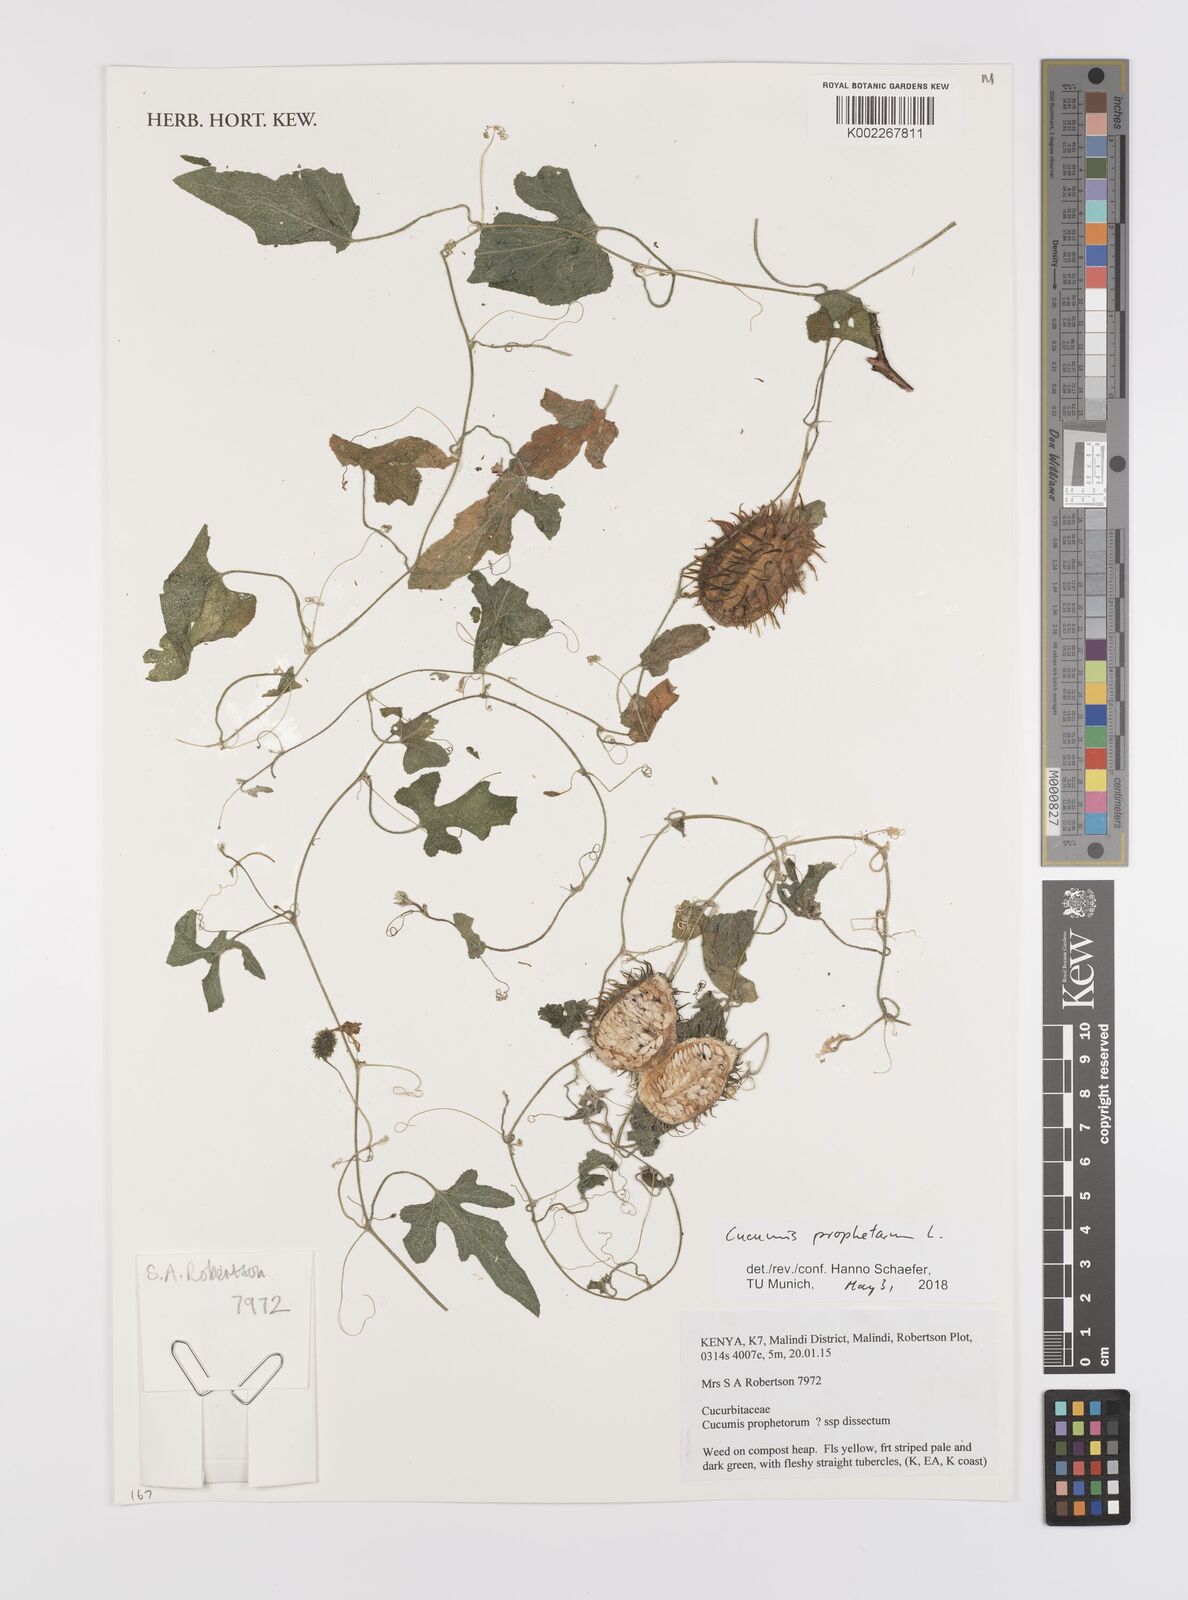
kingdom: Plantae
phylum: Tracheophyta
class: Magnoliopsida
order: Cucurbitales
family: Cucurbitaceae
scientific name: Cucurbitaceae
